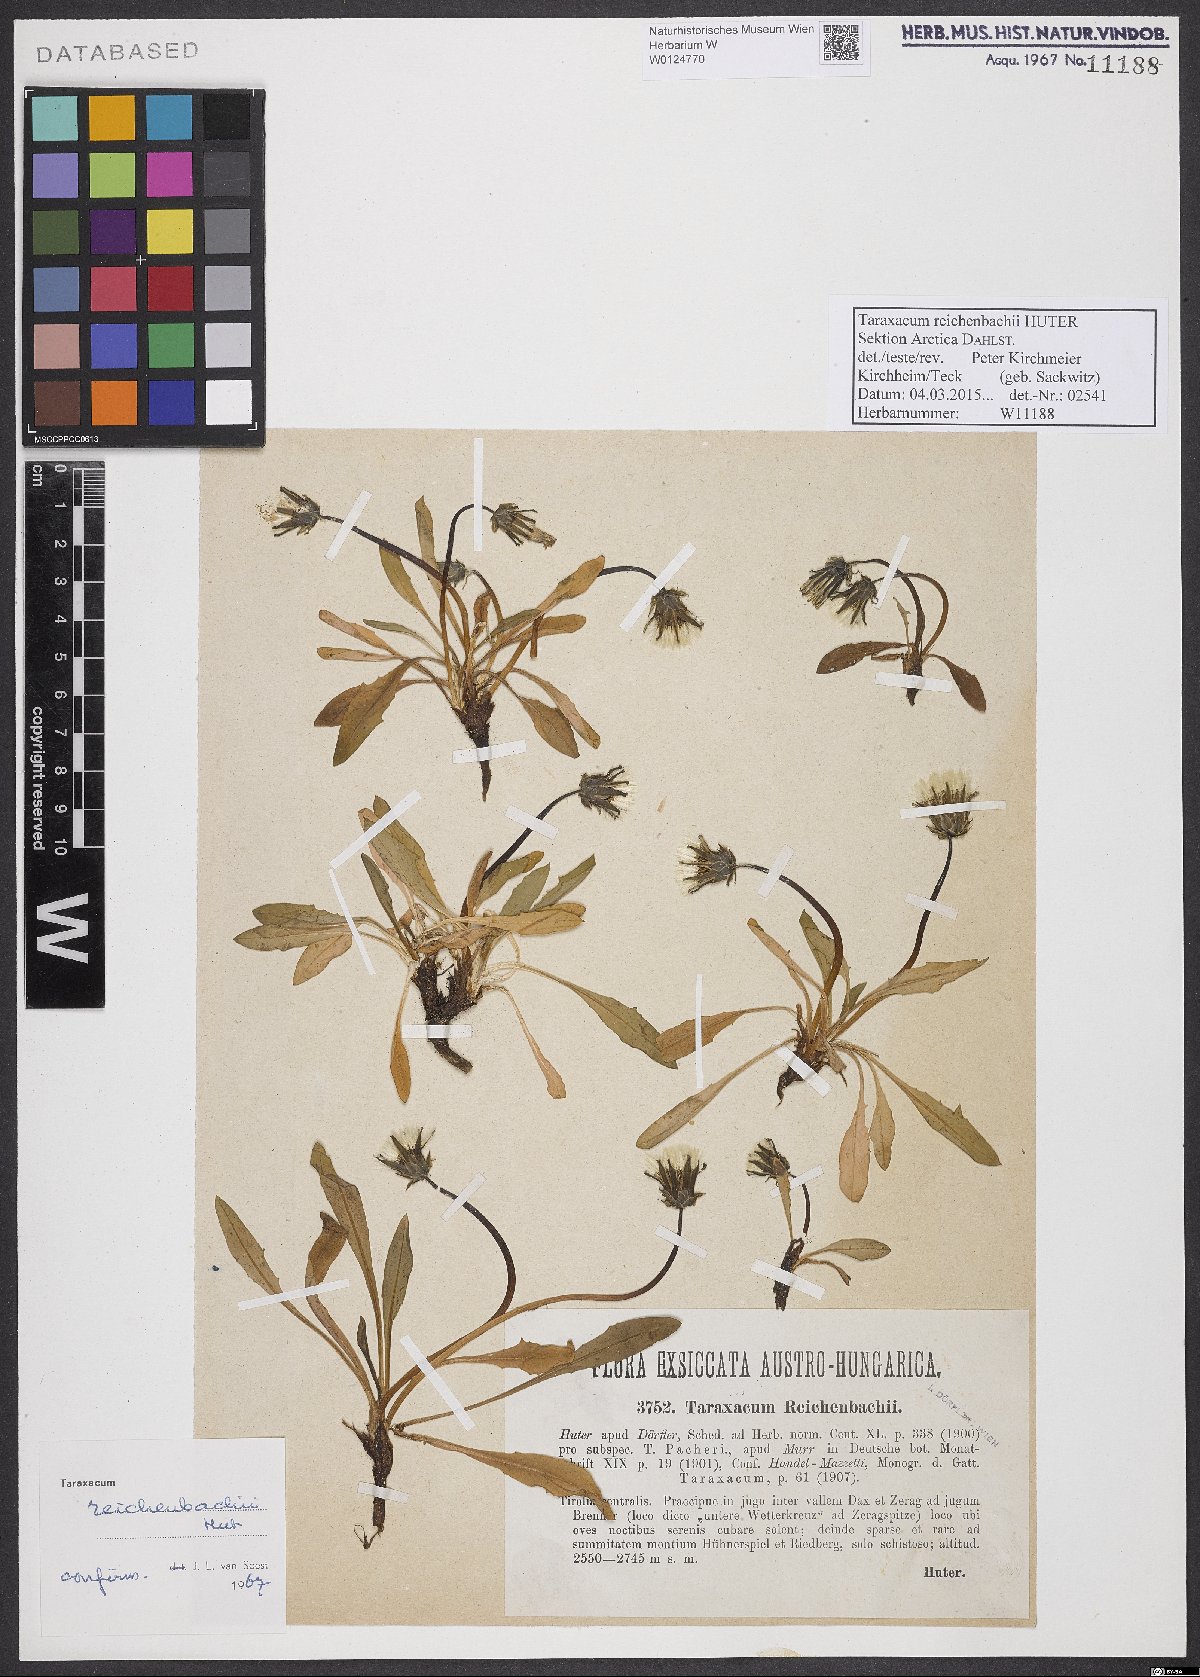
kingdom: Plantae
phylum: Tracheophyta
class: Magnoliopsida
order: Asterales
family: Asteraceae
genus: Taraxacum
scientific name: Taraxacum reichenbachii
